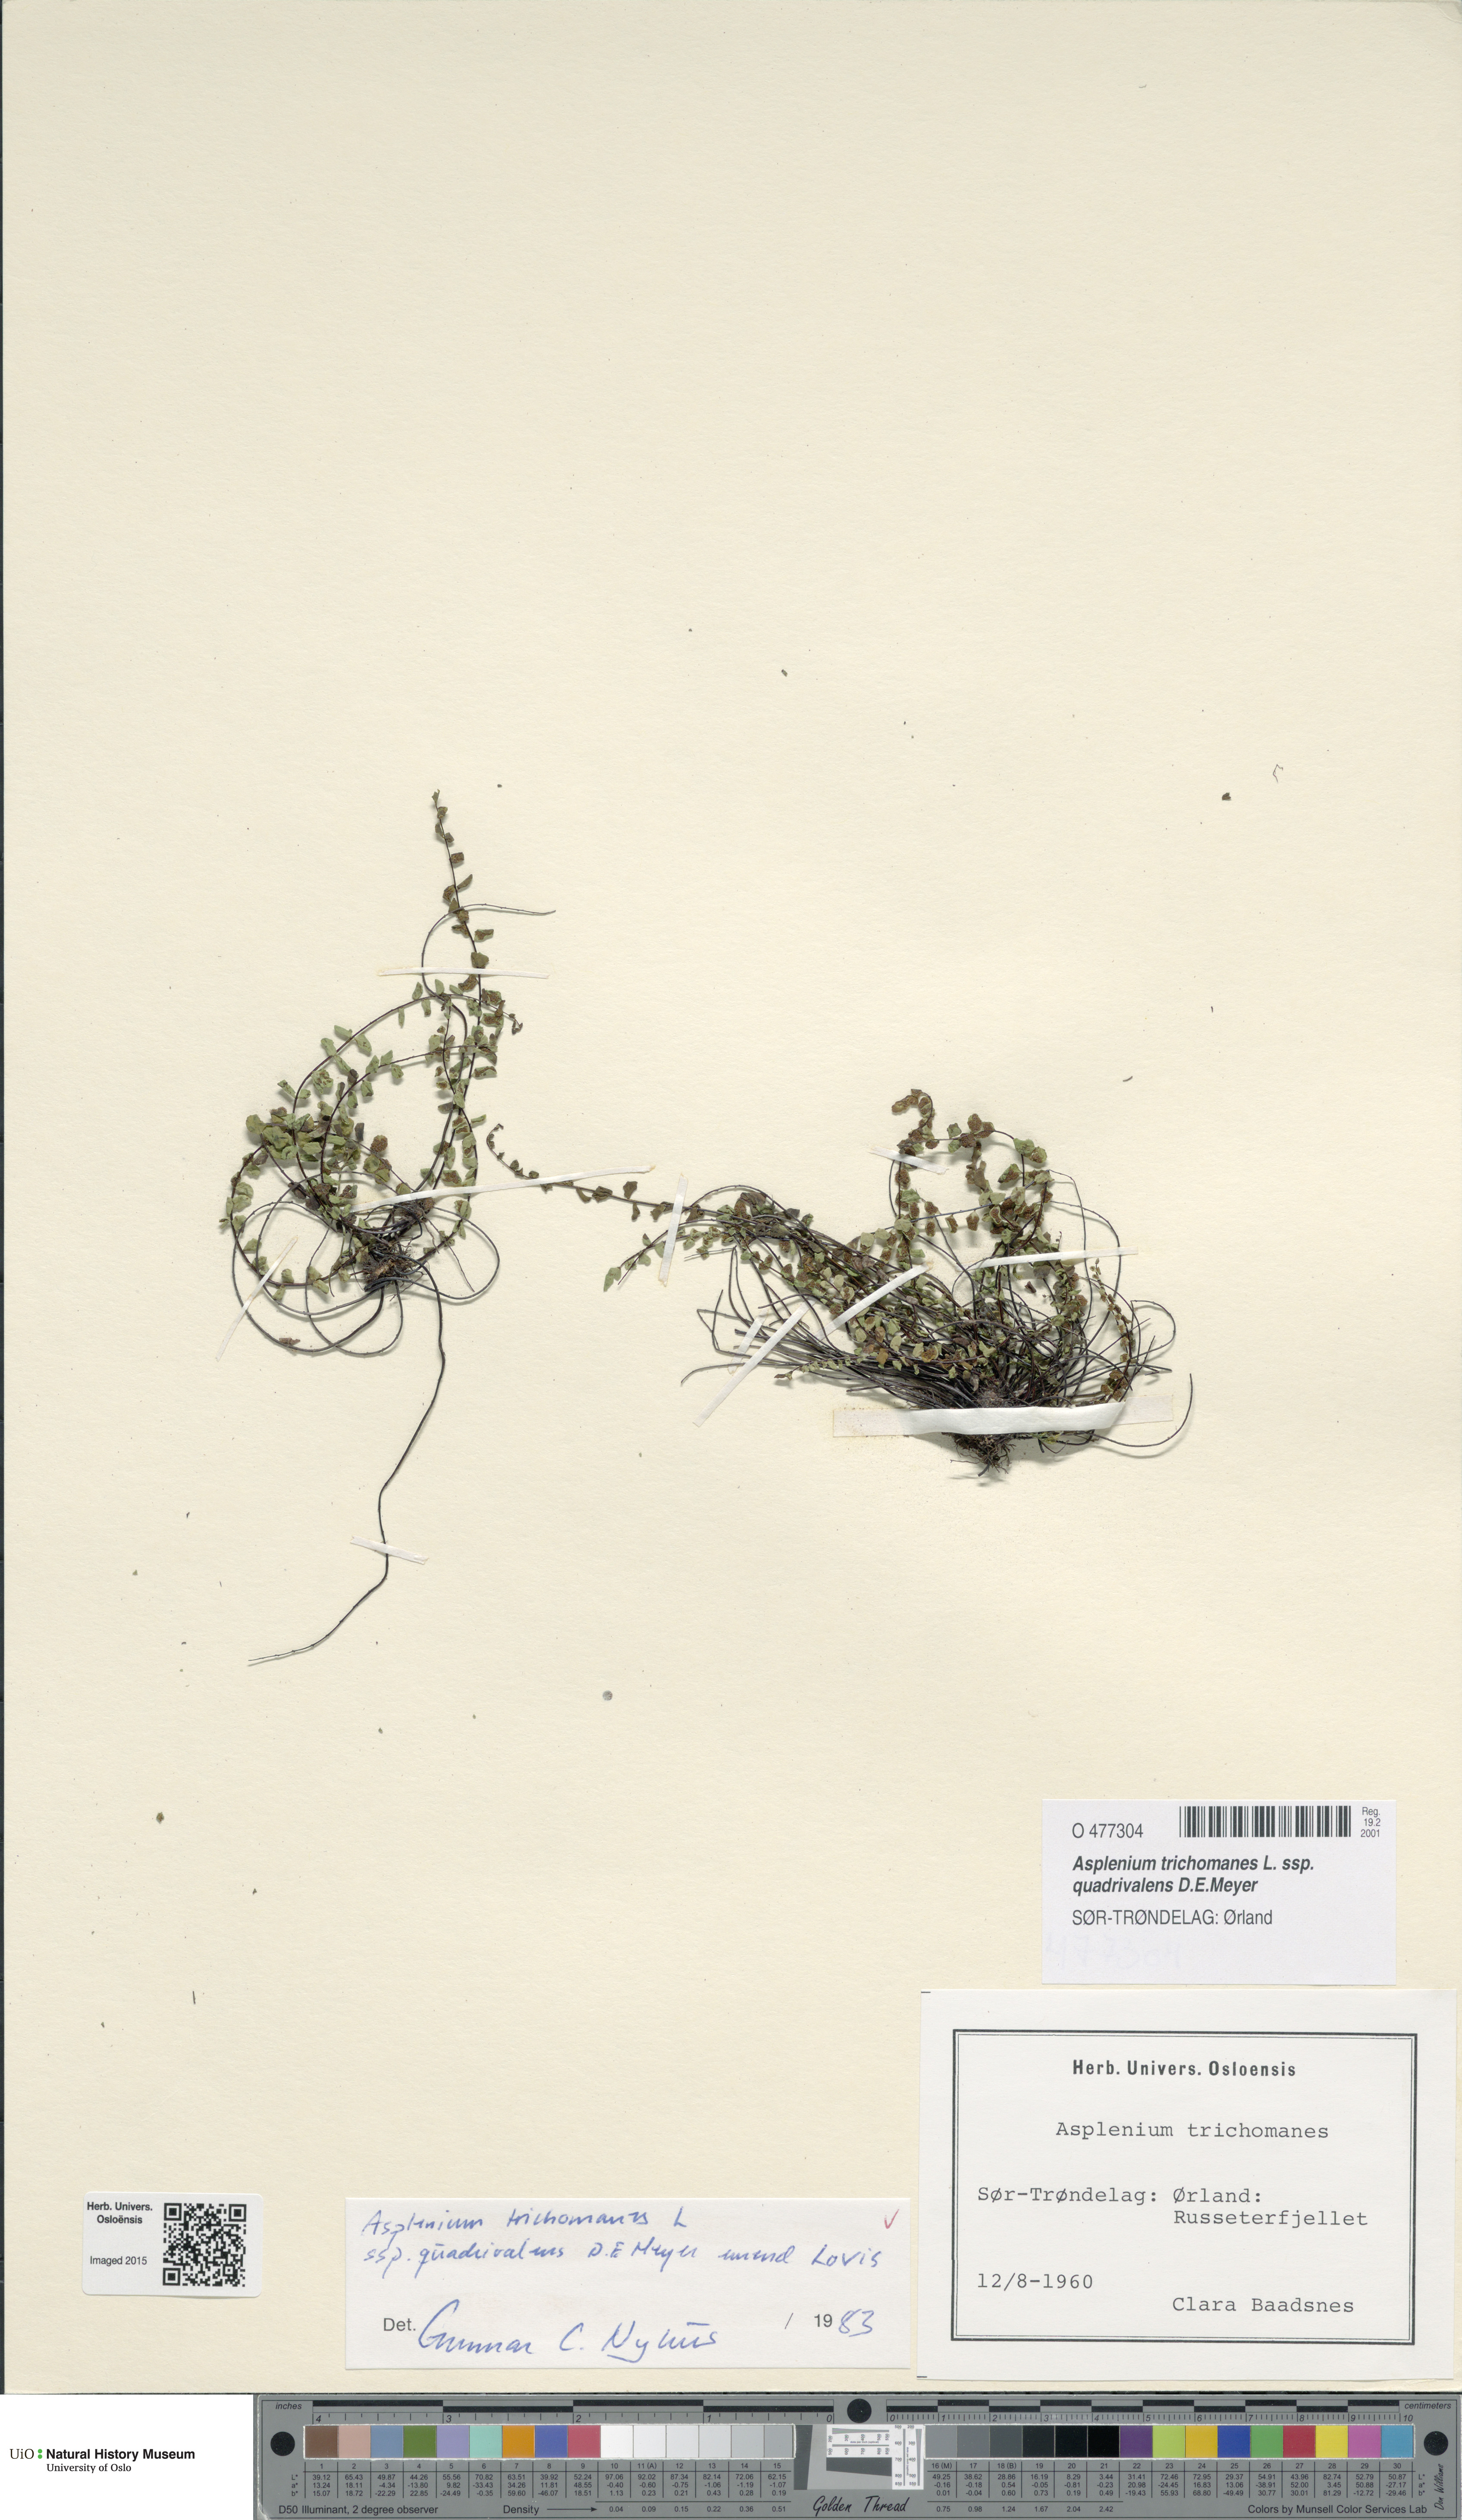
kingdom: Plantae
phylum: Tracheophyta
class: Polypodiopsida
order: Polypodiales
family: Aspleniaceae
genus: Asplenium
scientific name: Asplenium quadrivalens
